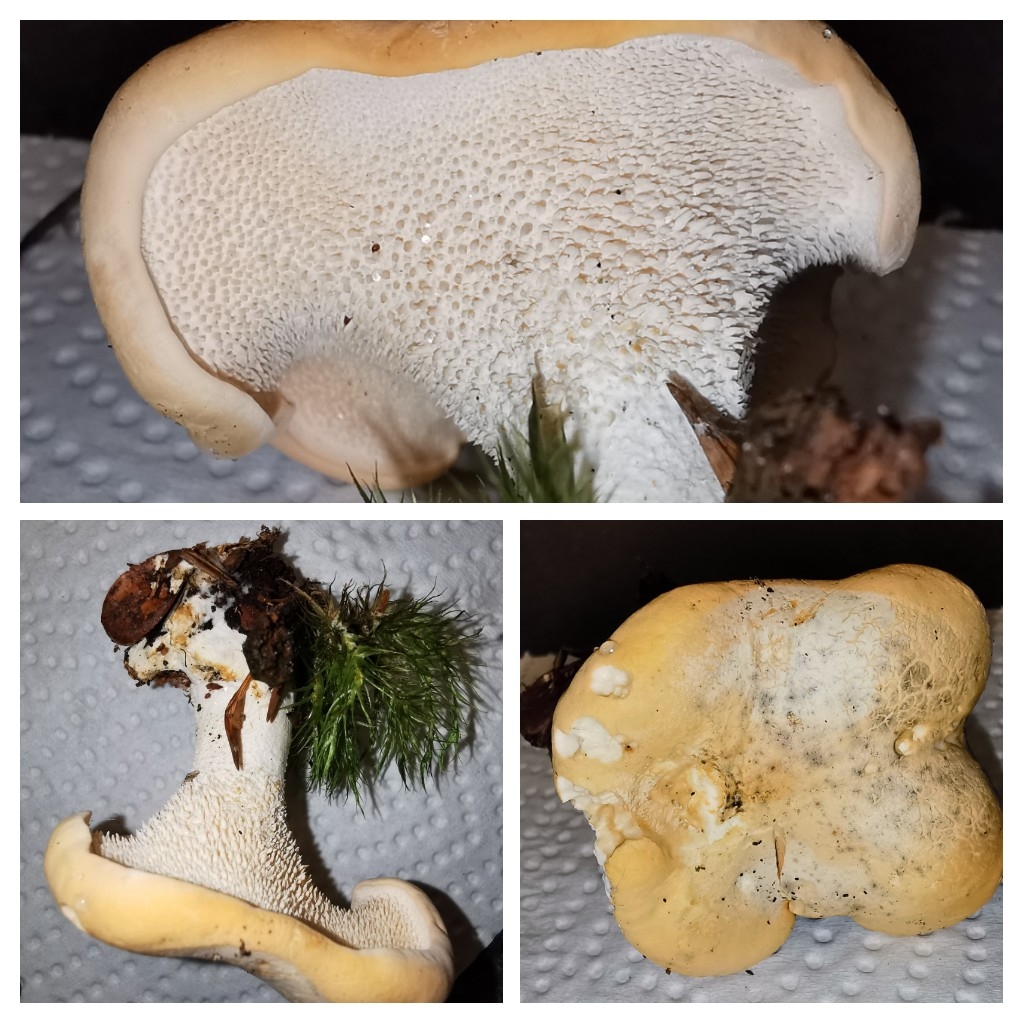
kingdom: Fungi
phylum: Basidiomycota
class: Agaricomycetes
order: Cantharellales
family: Hydnaceae
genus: Hydnum
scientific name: Hydnum
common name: pigsvamp
